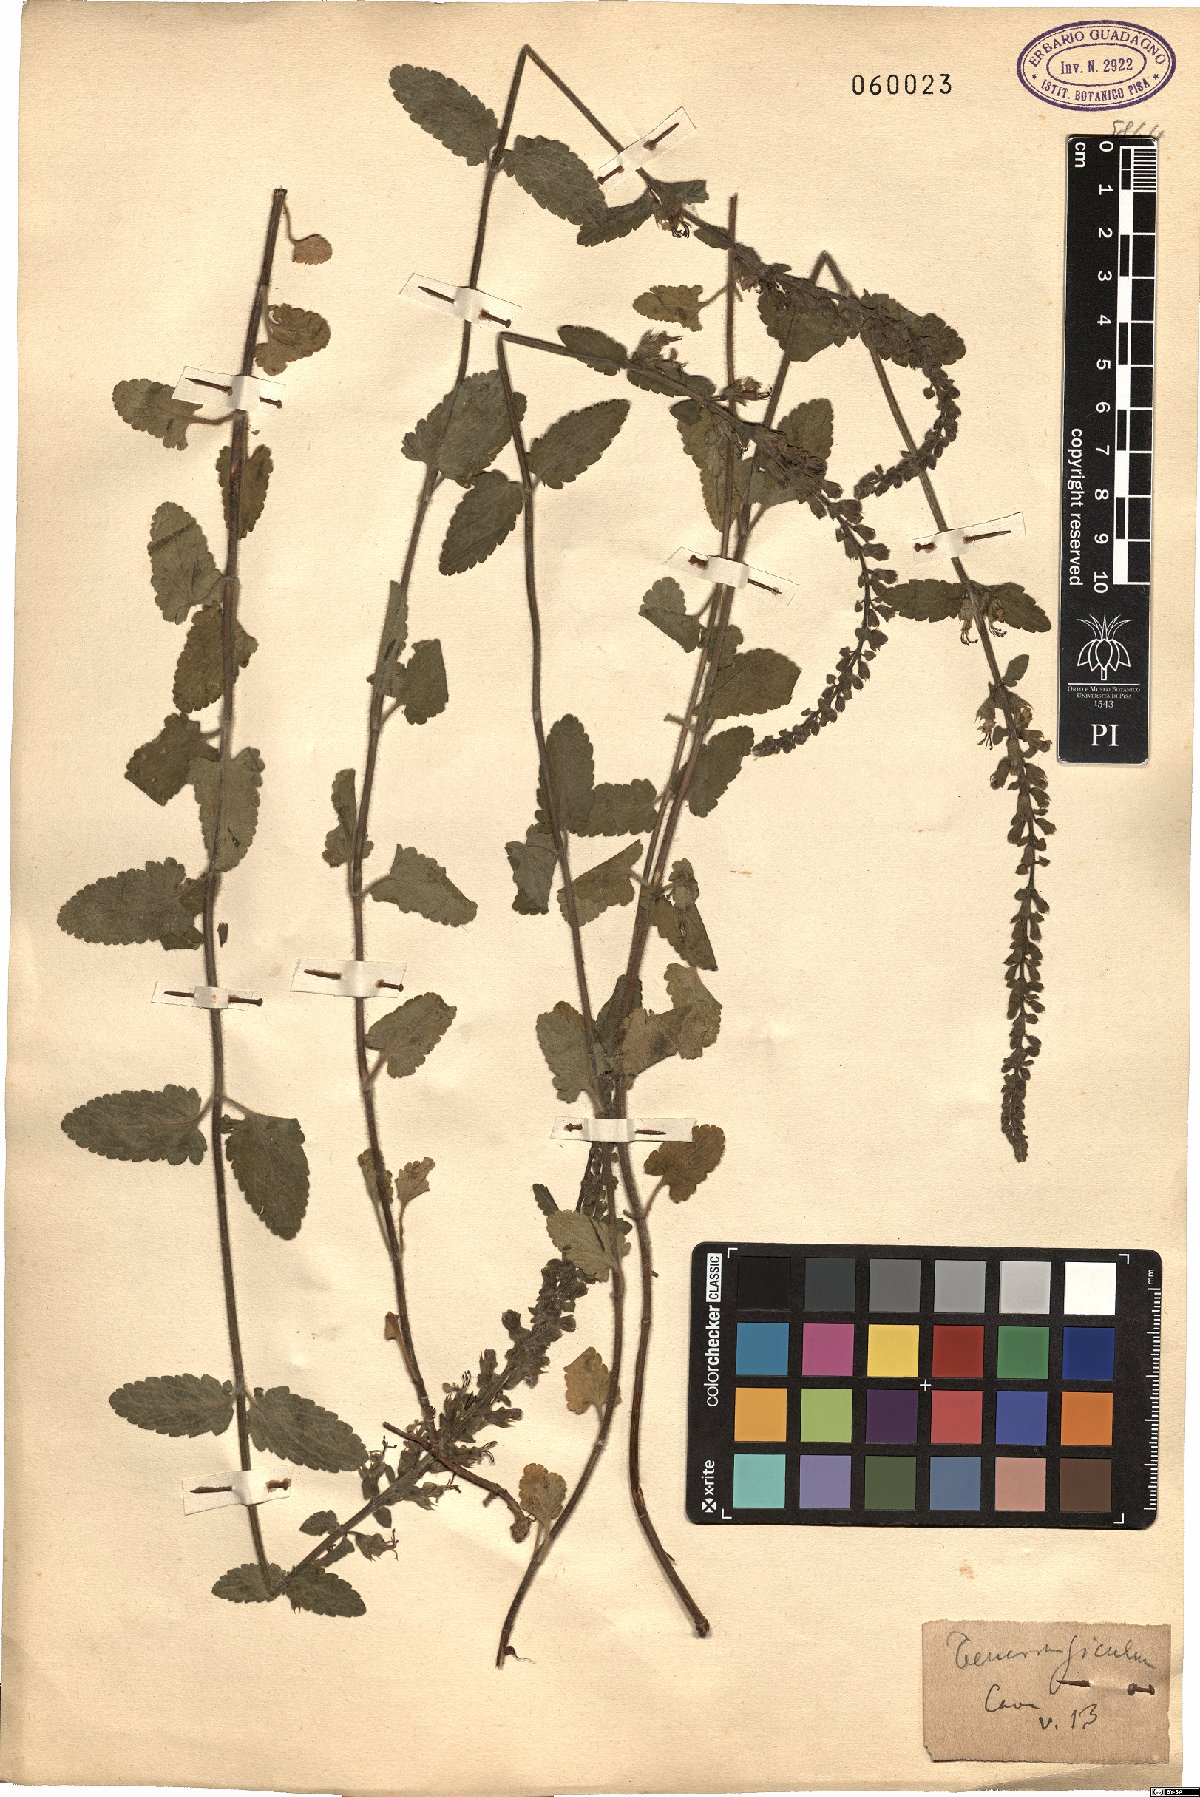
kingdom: Plantae
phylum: Tracheophyta
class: Magnoliopsida
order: Lamiales
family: Lamiaceae
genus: Teucrium
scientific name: Teucrium siculum
